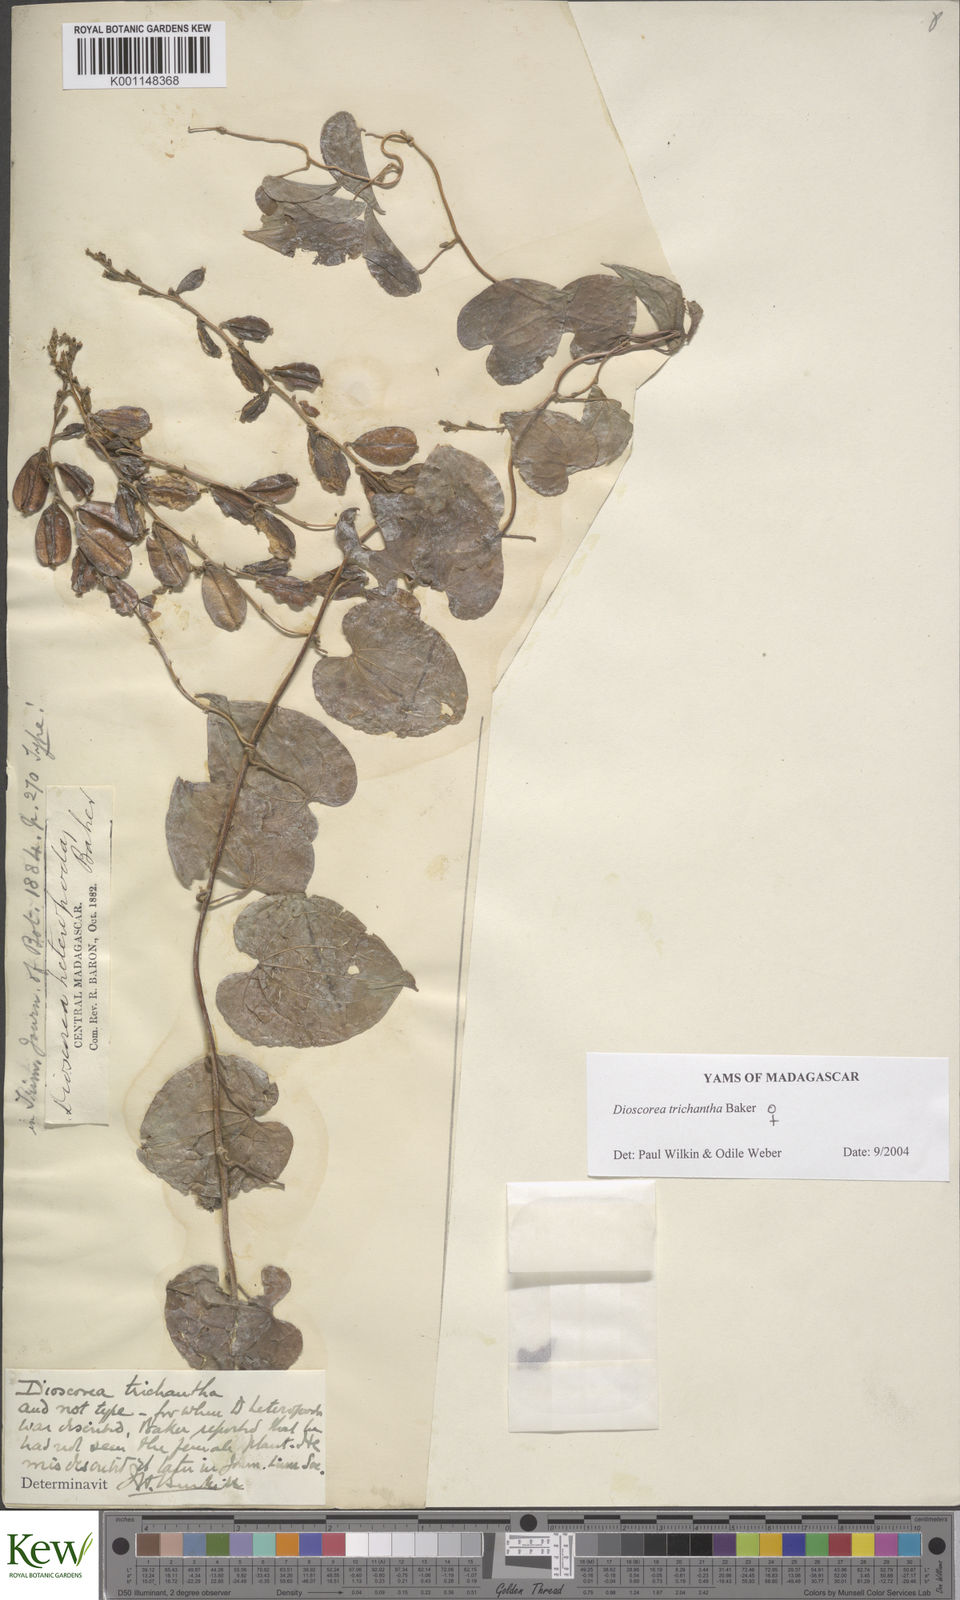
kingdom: Plantae
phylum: Tracheophyta
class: Liliopsida
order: Dioscoreales
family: Dioscoreaceae
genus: Dioscorea
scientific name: Dioscorea trichantha
